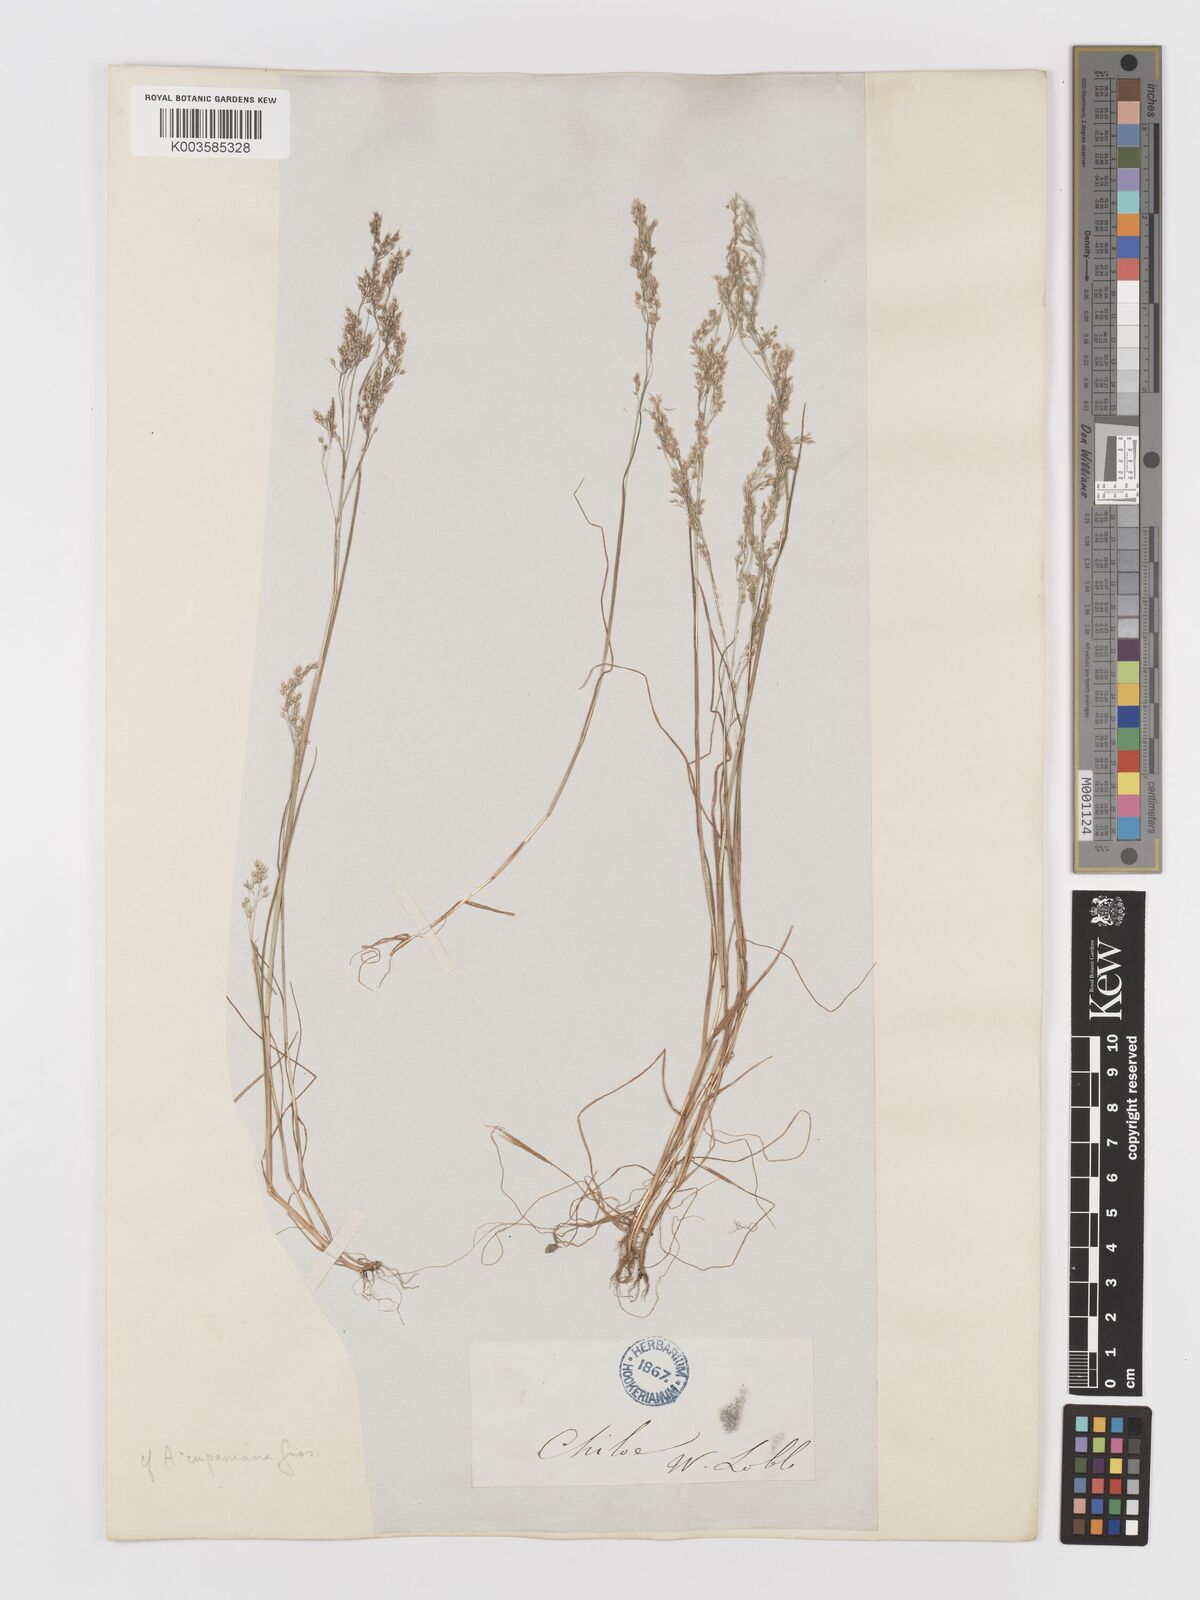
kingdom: Plantae
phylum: Tracheophyta
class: Liliopsida
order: Poales
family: Poaceae
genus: Aira
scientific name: Aira cupaniana
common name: Silver hairgrass
